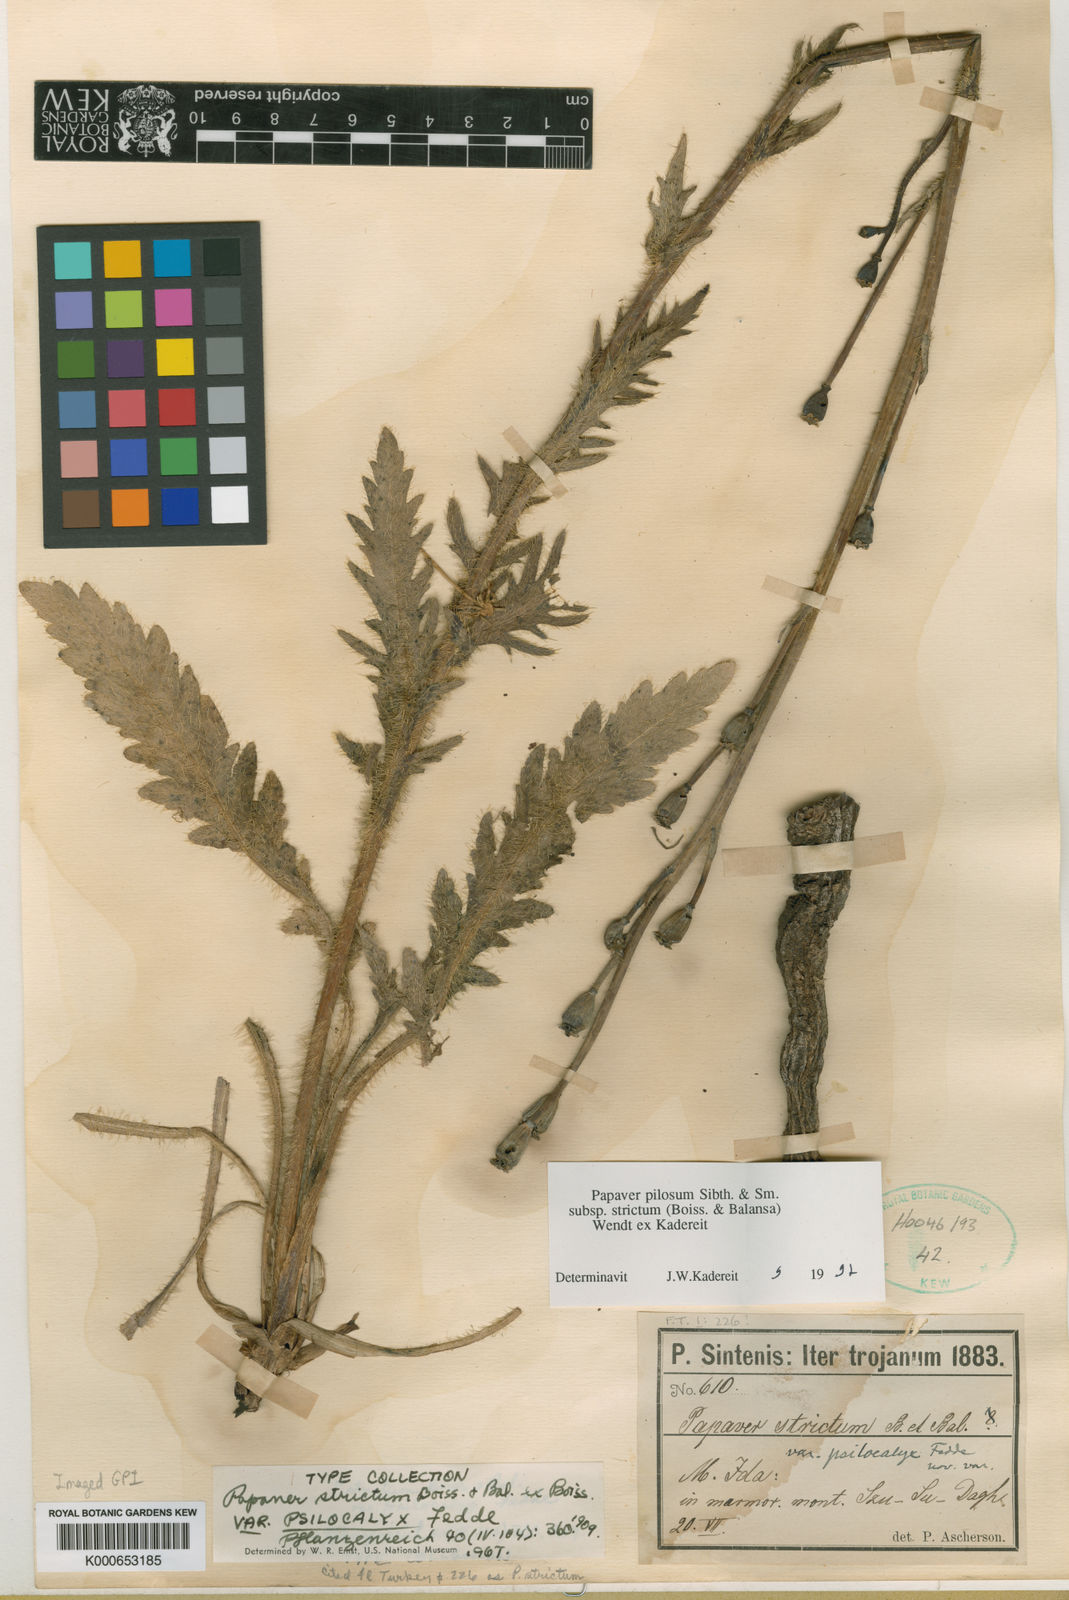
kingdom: Plantae
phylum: Tracheophyta
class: Magnoliopsida
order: Ranunculales
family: Papaveraceae
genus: Papaver
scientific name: Papaver pilosum
